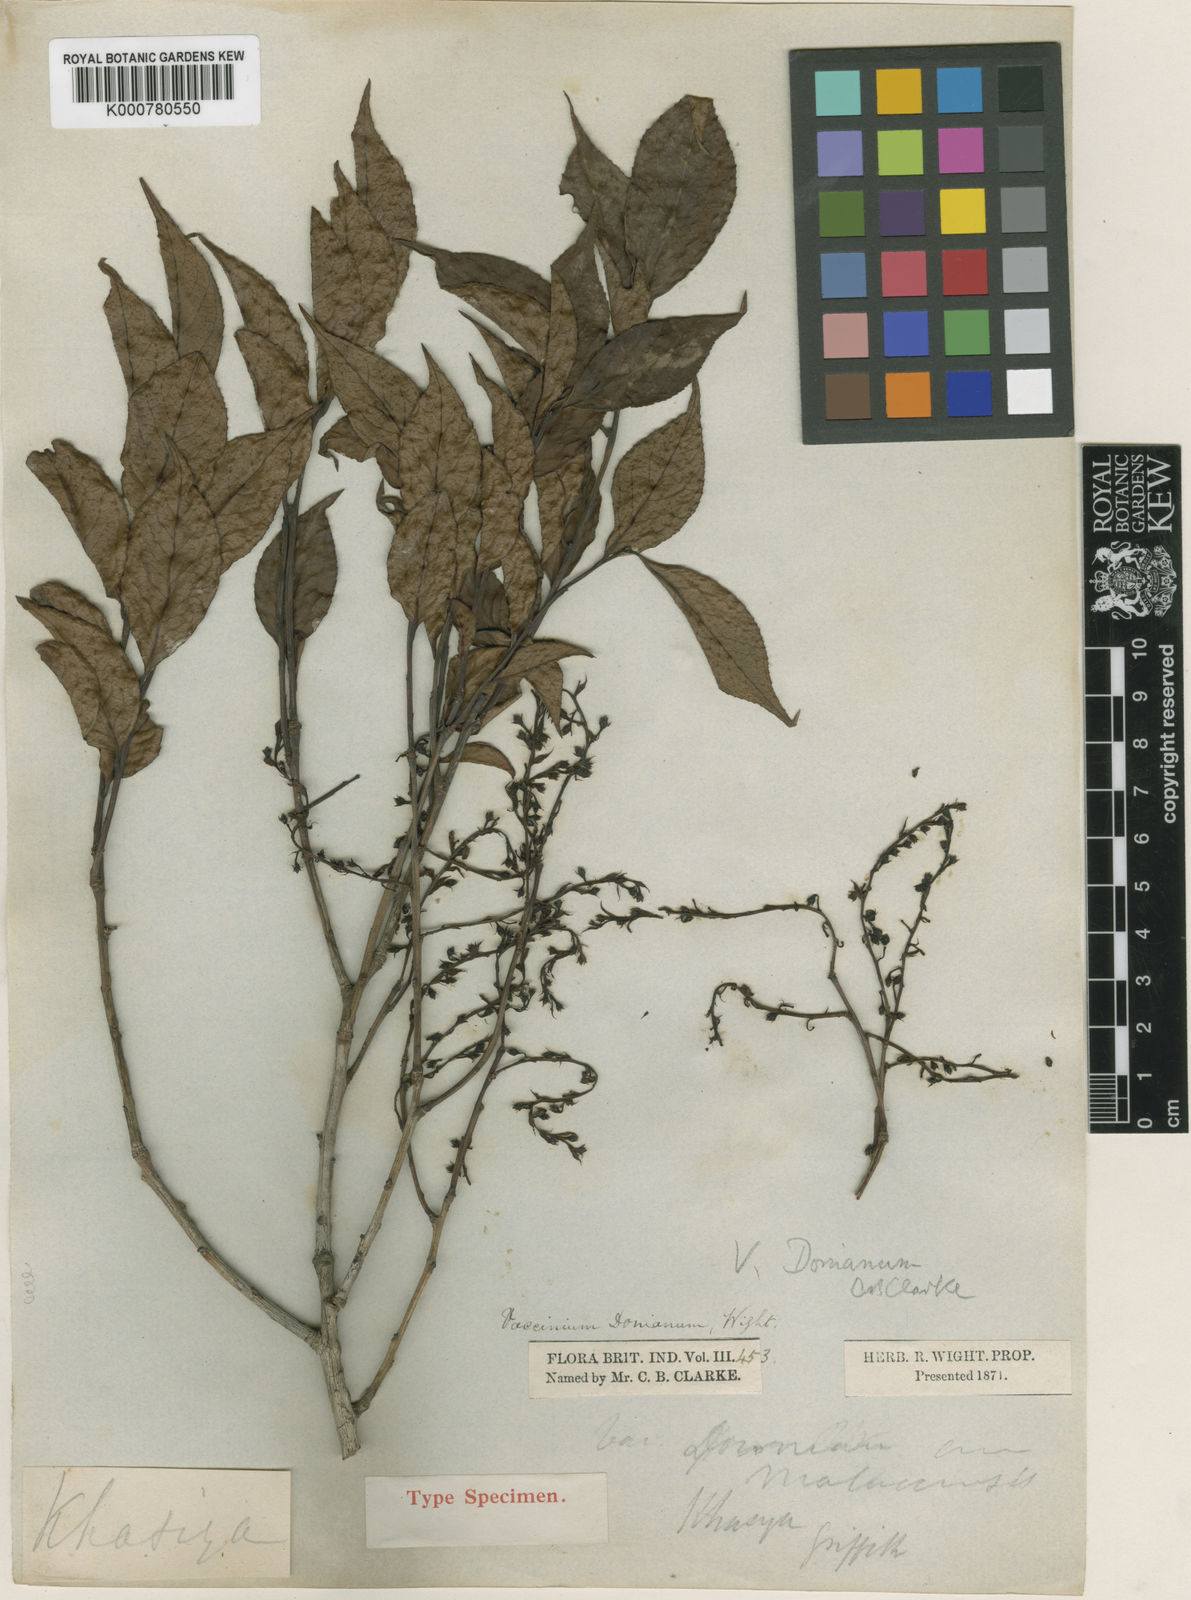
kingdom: Plantae
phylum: Tracheophyta
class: Magnoliopsida
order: Ericales
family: Ericaceae
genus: Vaccinium
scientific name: Vaccinium
